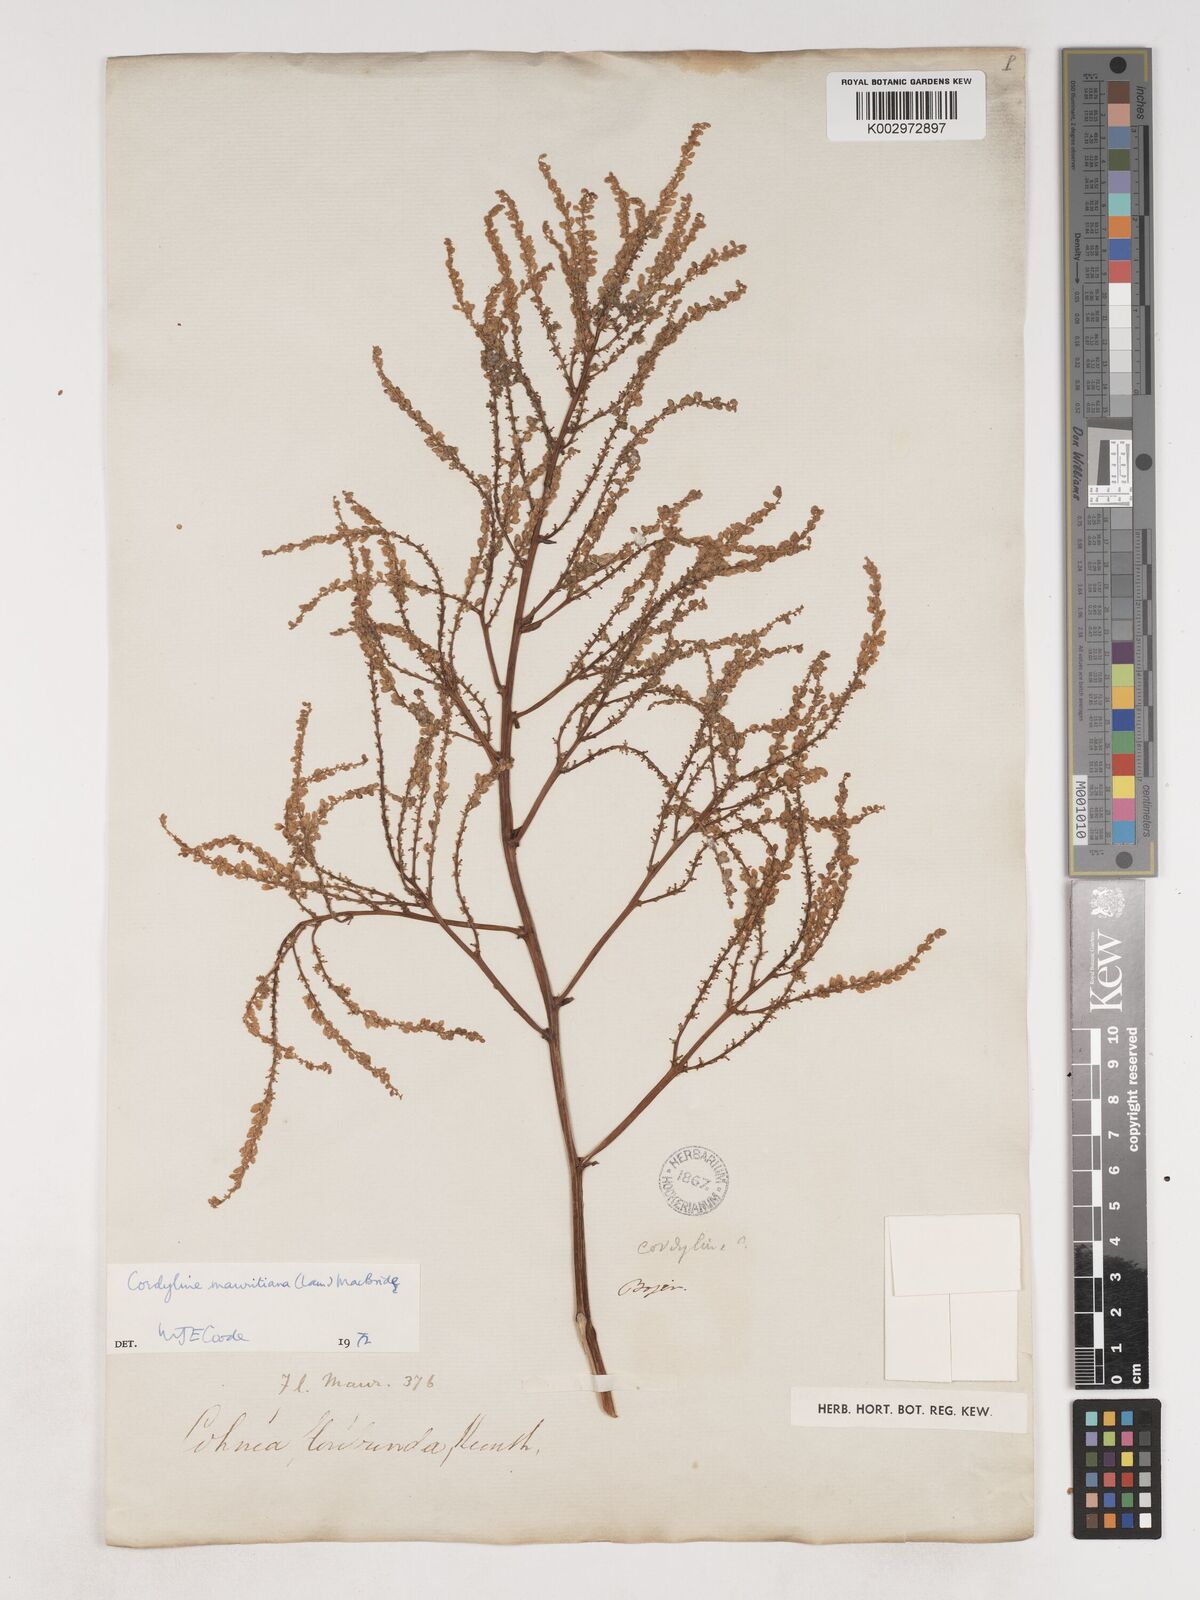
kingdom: Plantae
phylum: Tracheophyta
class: Liliopsida
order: Asparagales
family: Asparagaceae
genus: Cordyline
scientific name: Cordyline mauritiana
